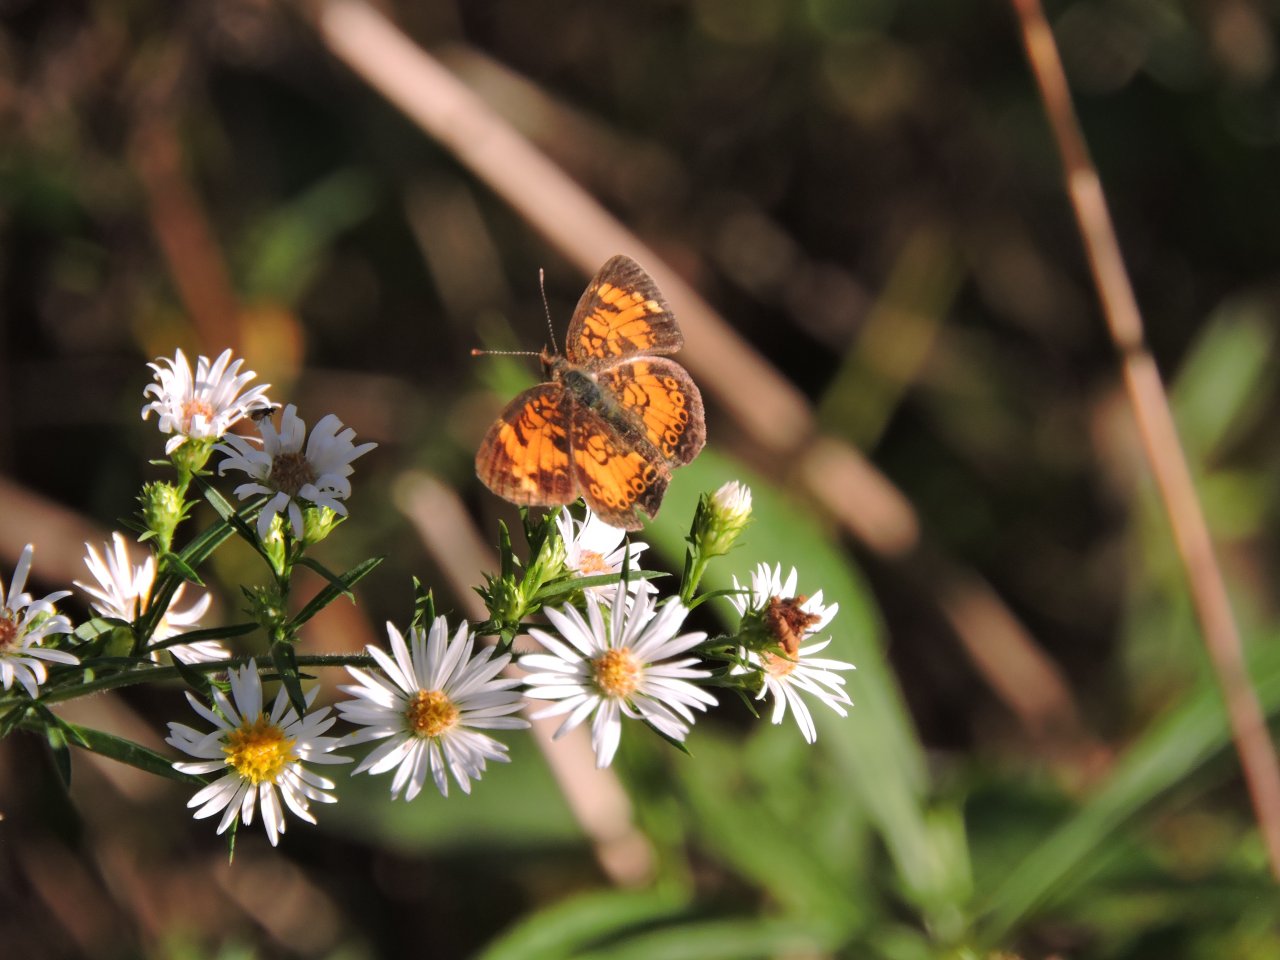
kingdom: Animalia
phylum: Arthropoda
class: Insecta
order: Lepidoptera
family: Nymphalidae
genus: Phyciodes
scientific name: Phyciodes tharos
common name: Pearl Crescent
